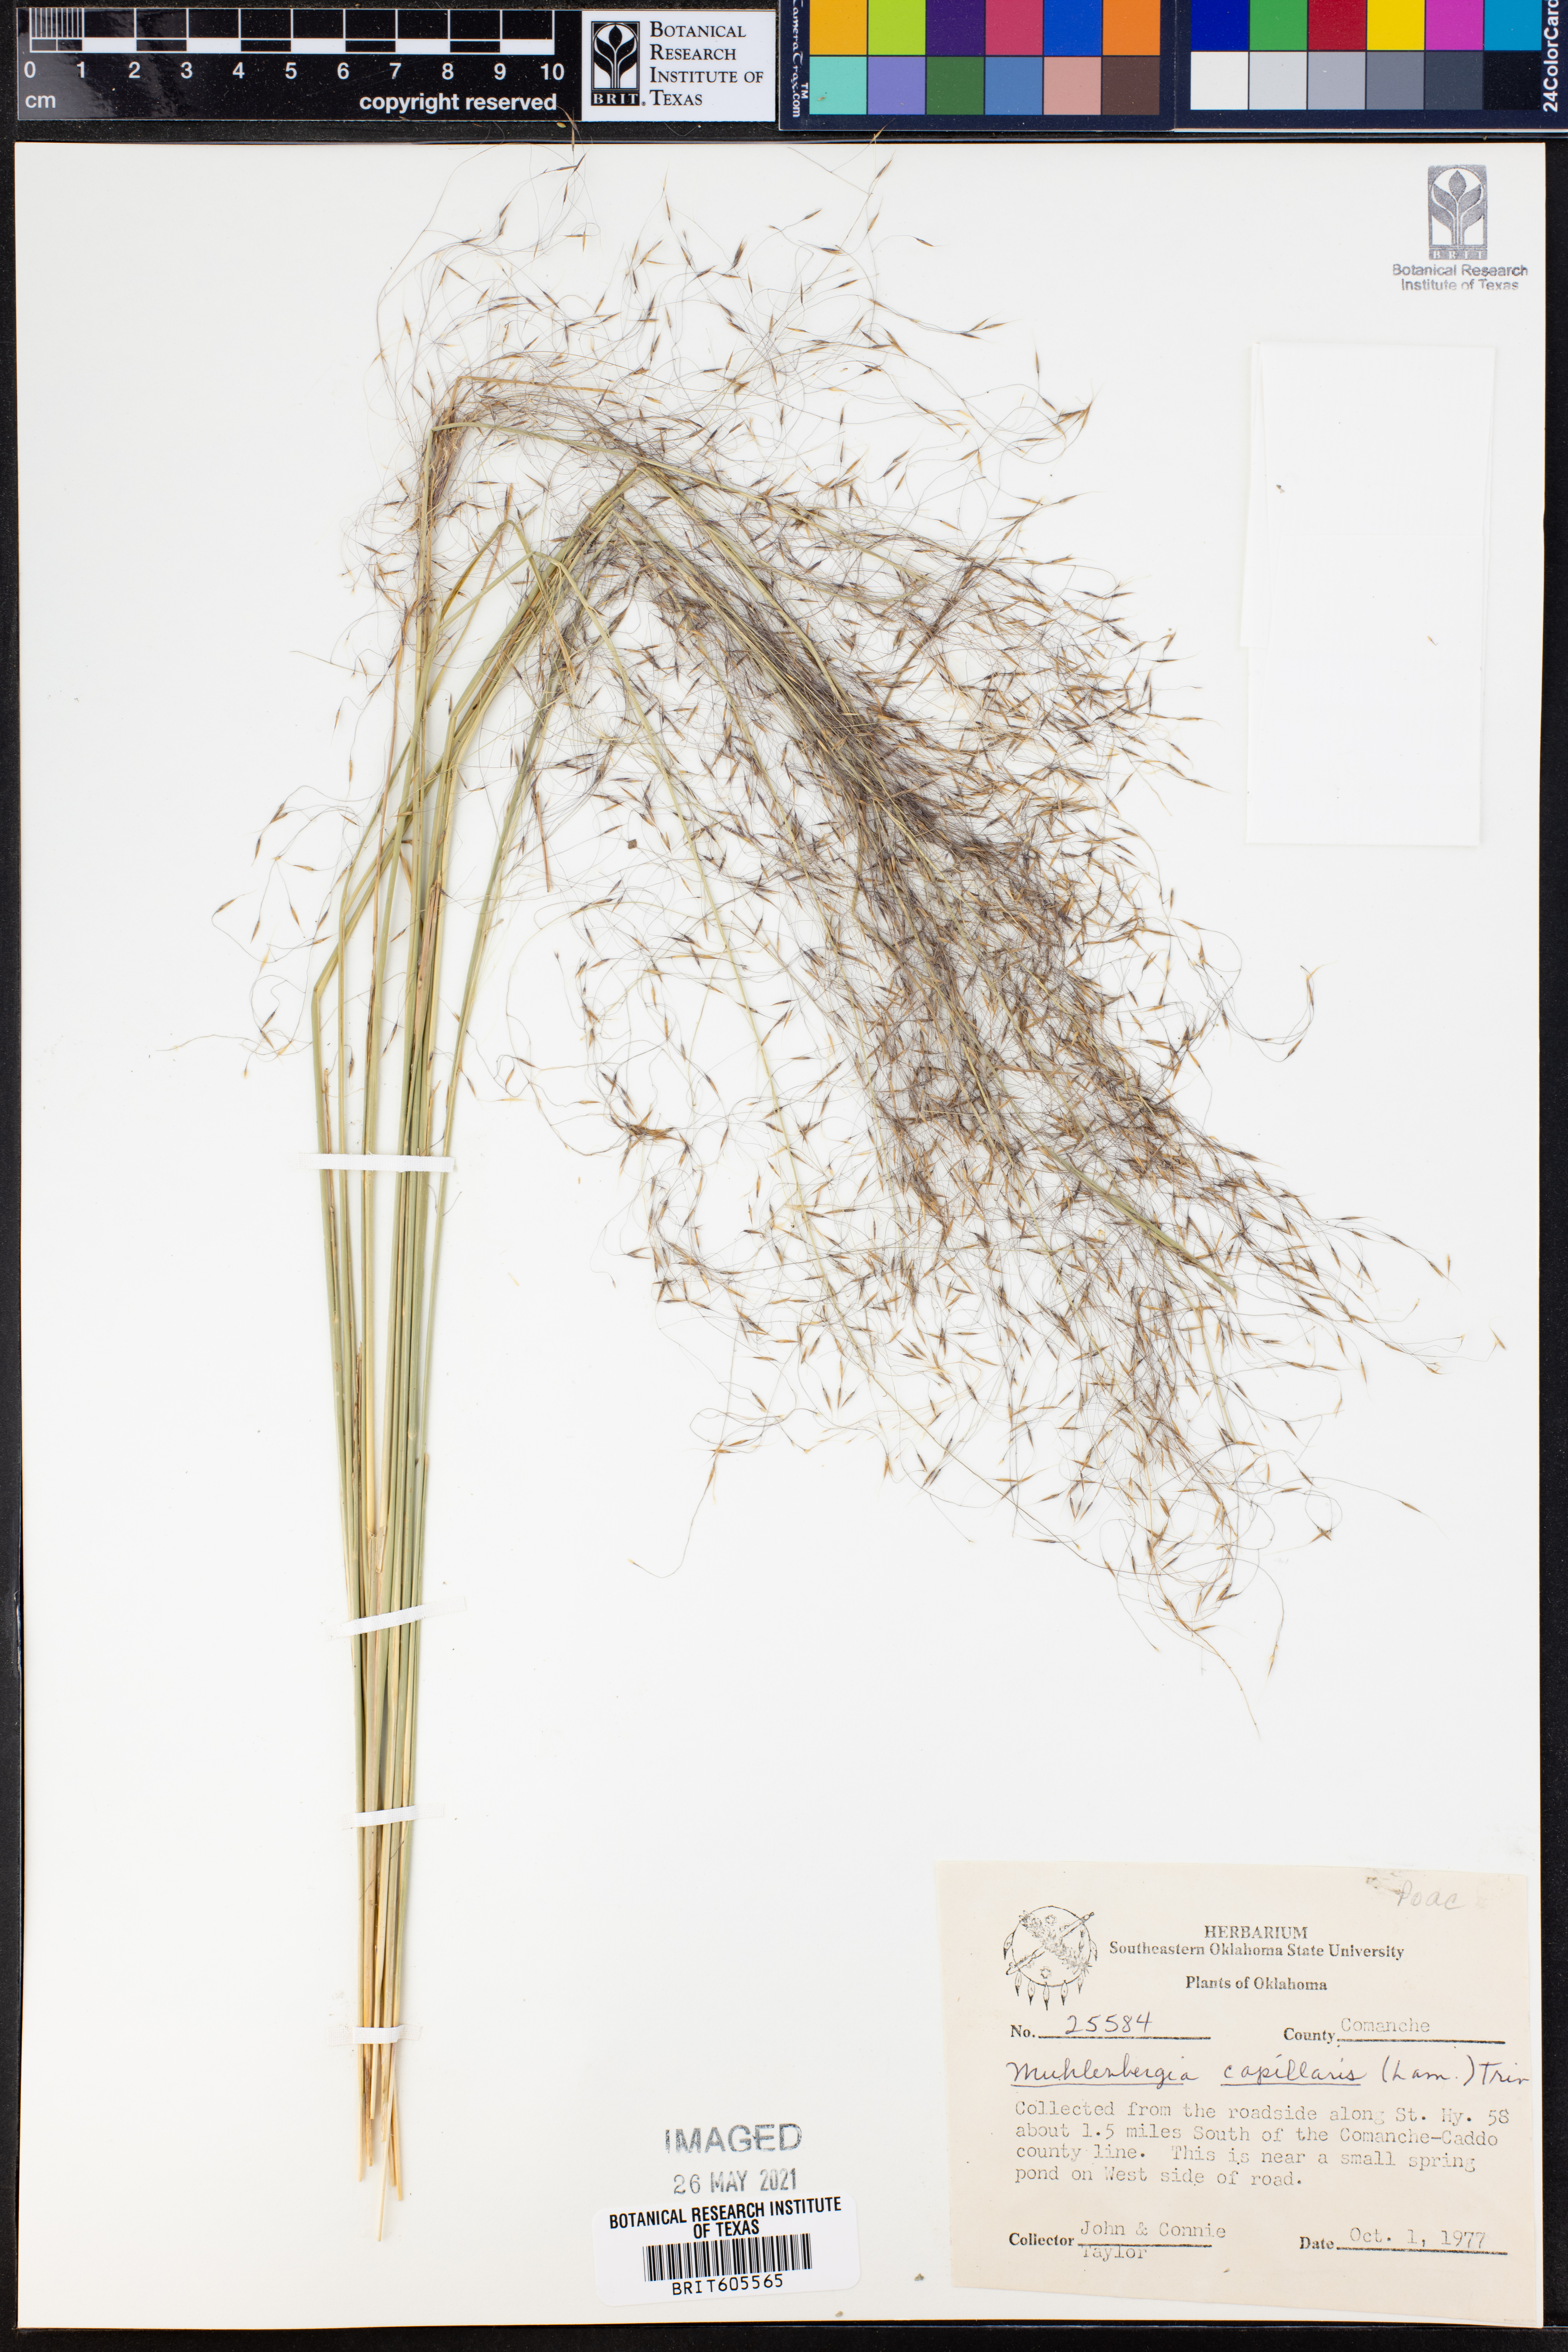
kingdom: Plantae
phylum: Tracheophyta
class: Liliopsida
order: Poales
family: Poaceae
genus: Muhlenbergia
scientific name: Muhlenbergia capillaris
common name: Purple grass
